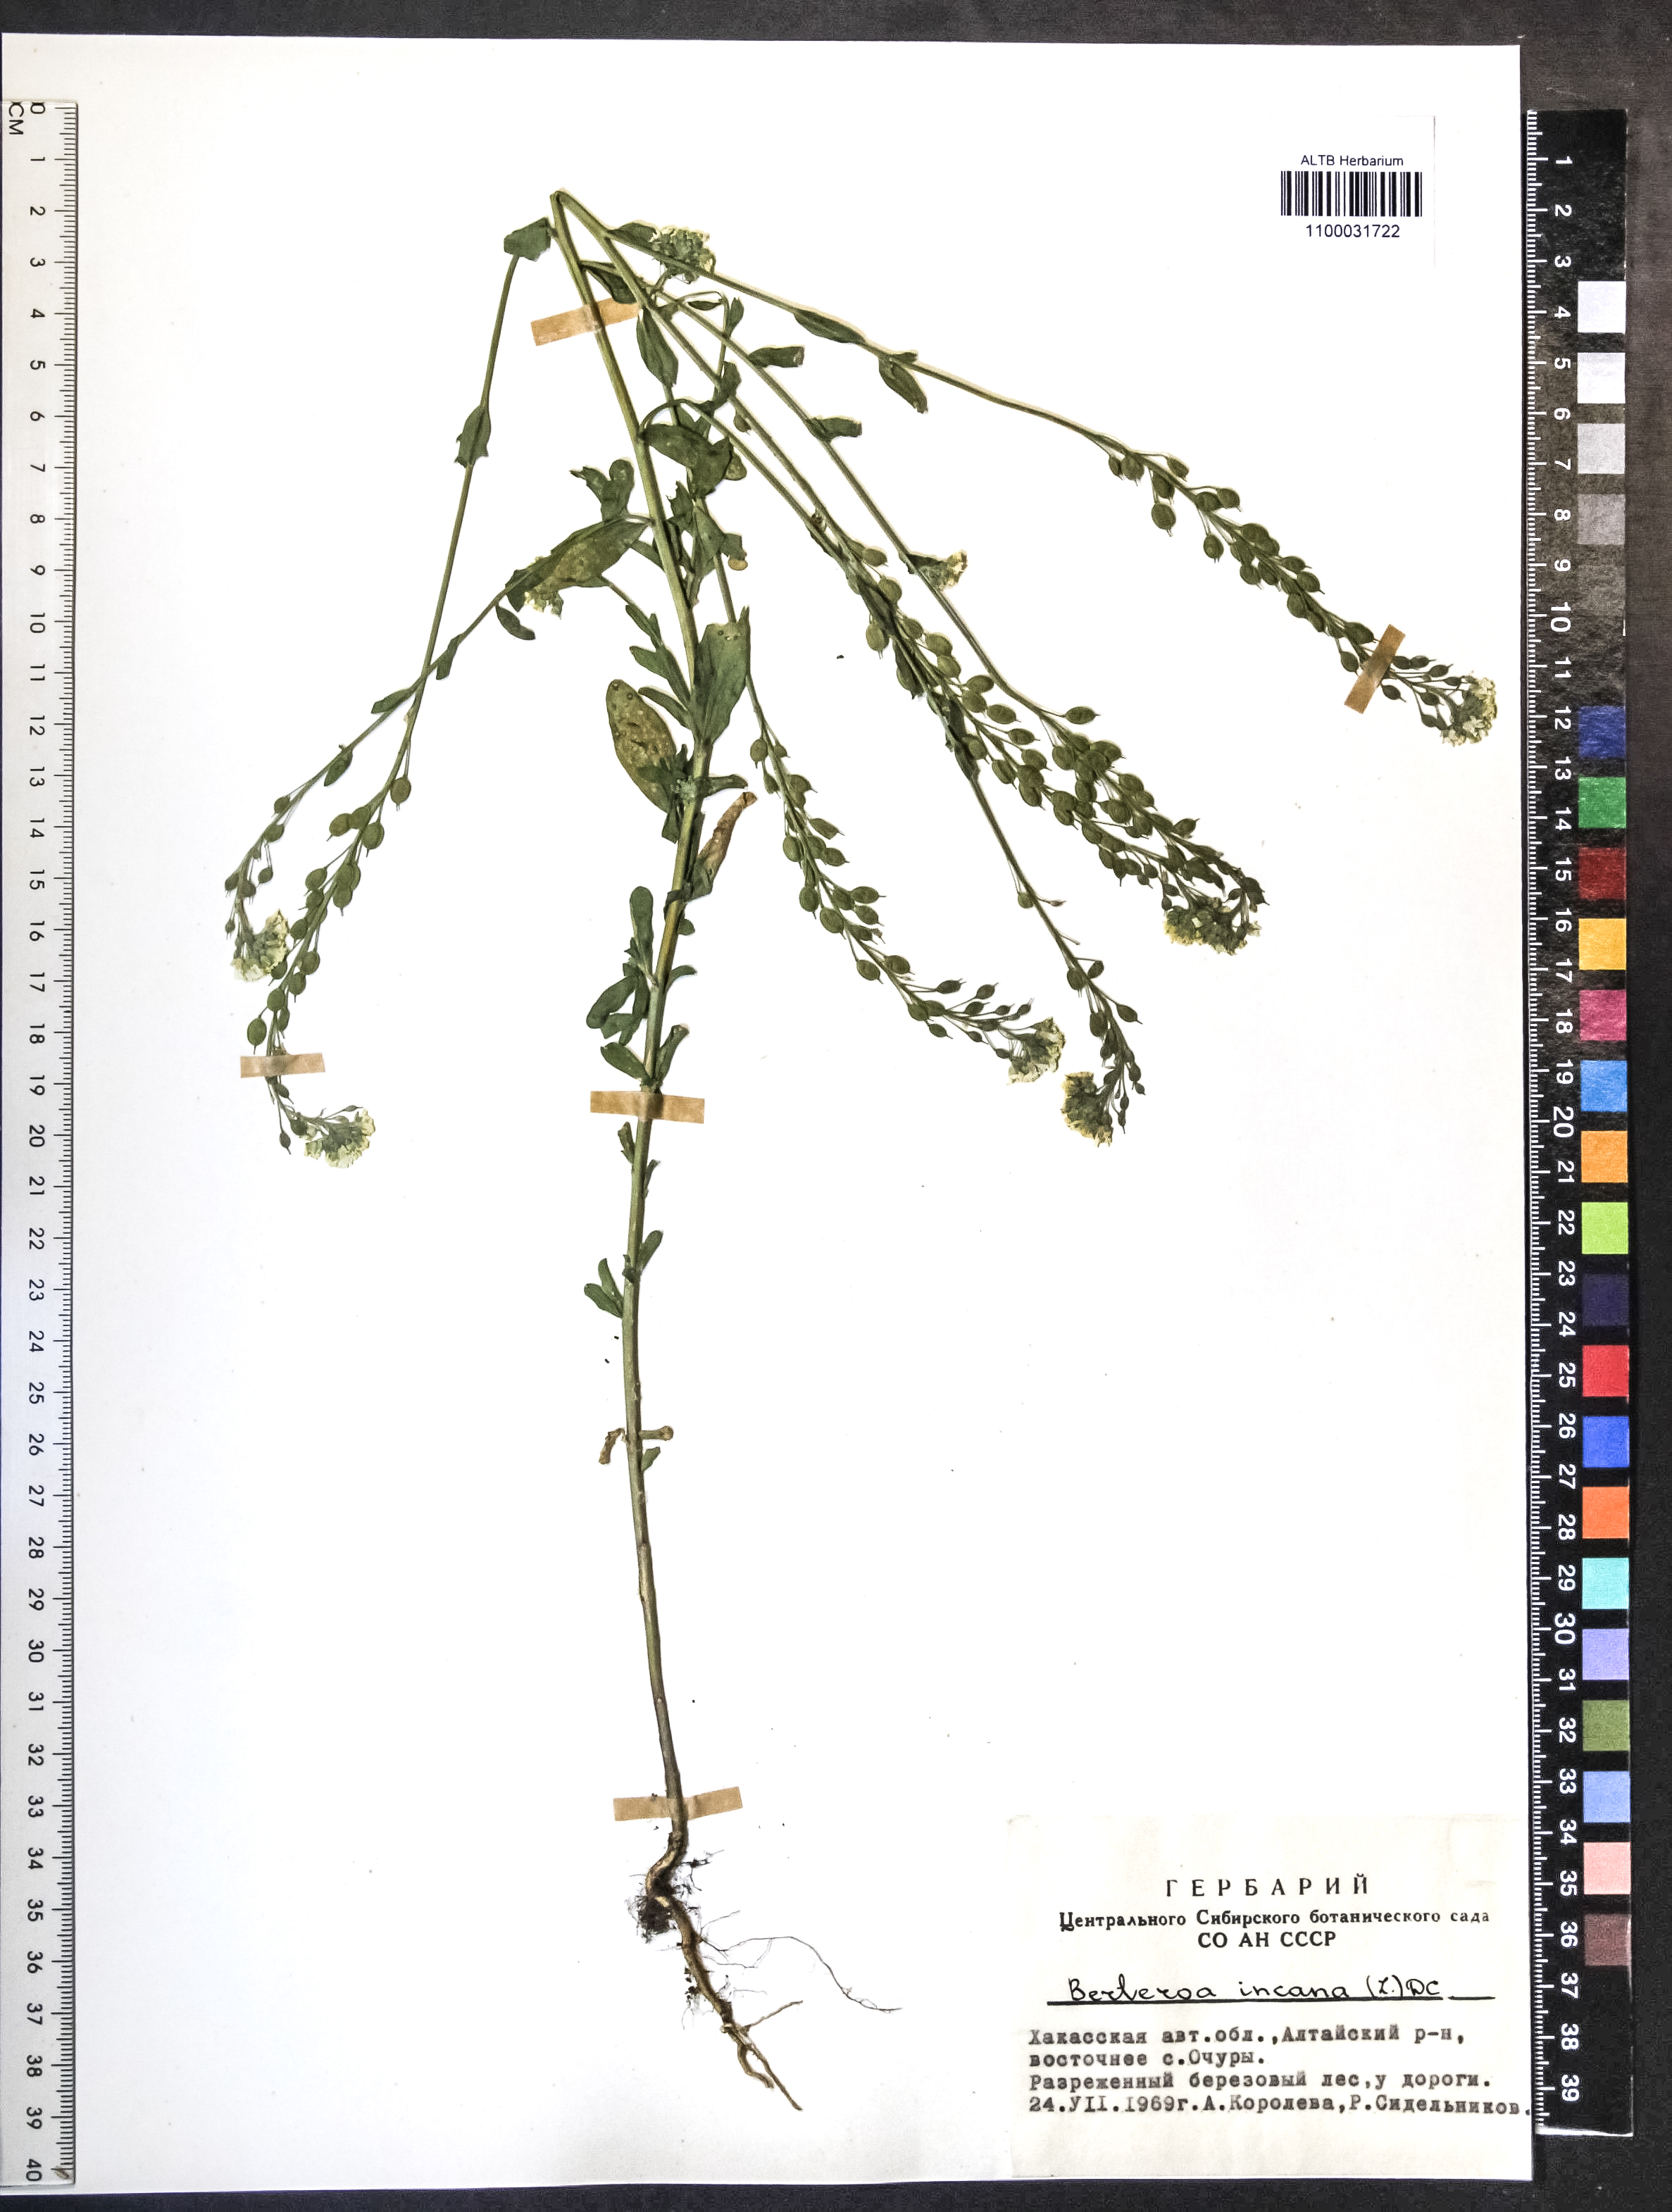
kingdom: Plantae
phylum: Tracheophyta
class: Magnoliopsida
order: Brassicales
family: Brassicaceae
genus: Berteroa
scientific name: Berteroa incana
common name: Hoary alison
